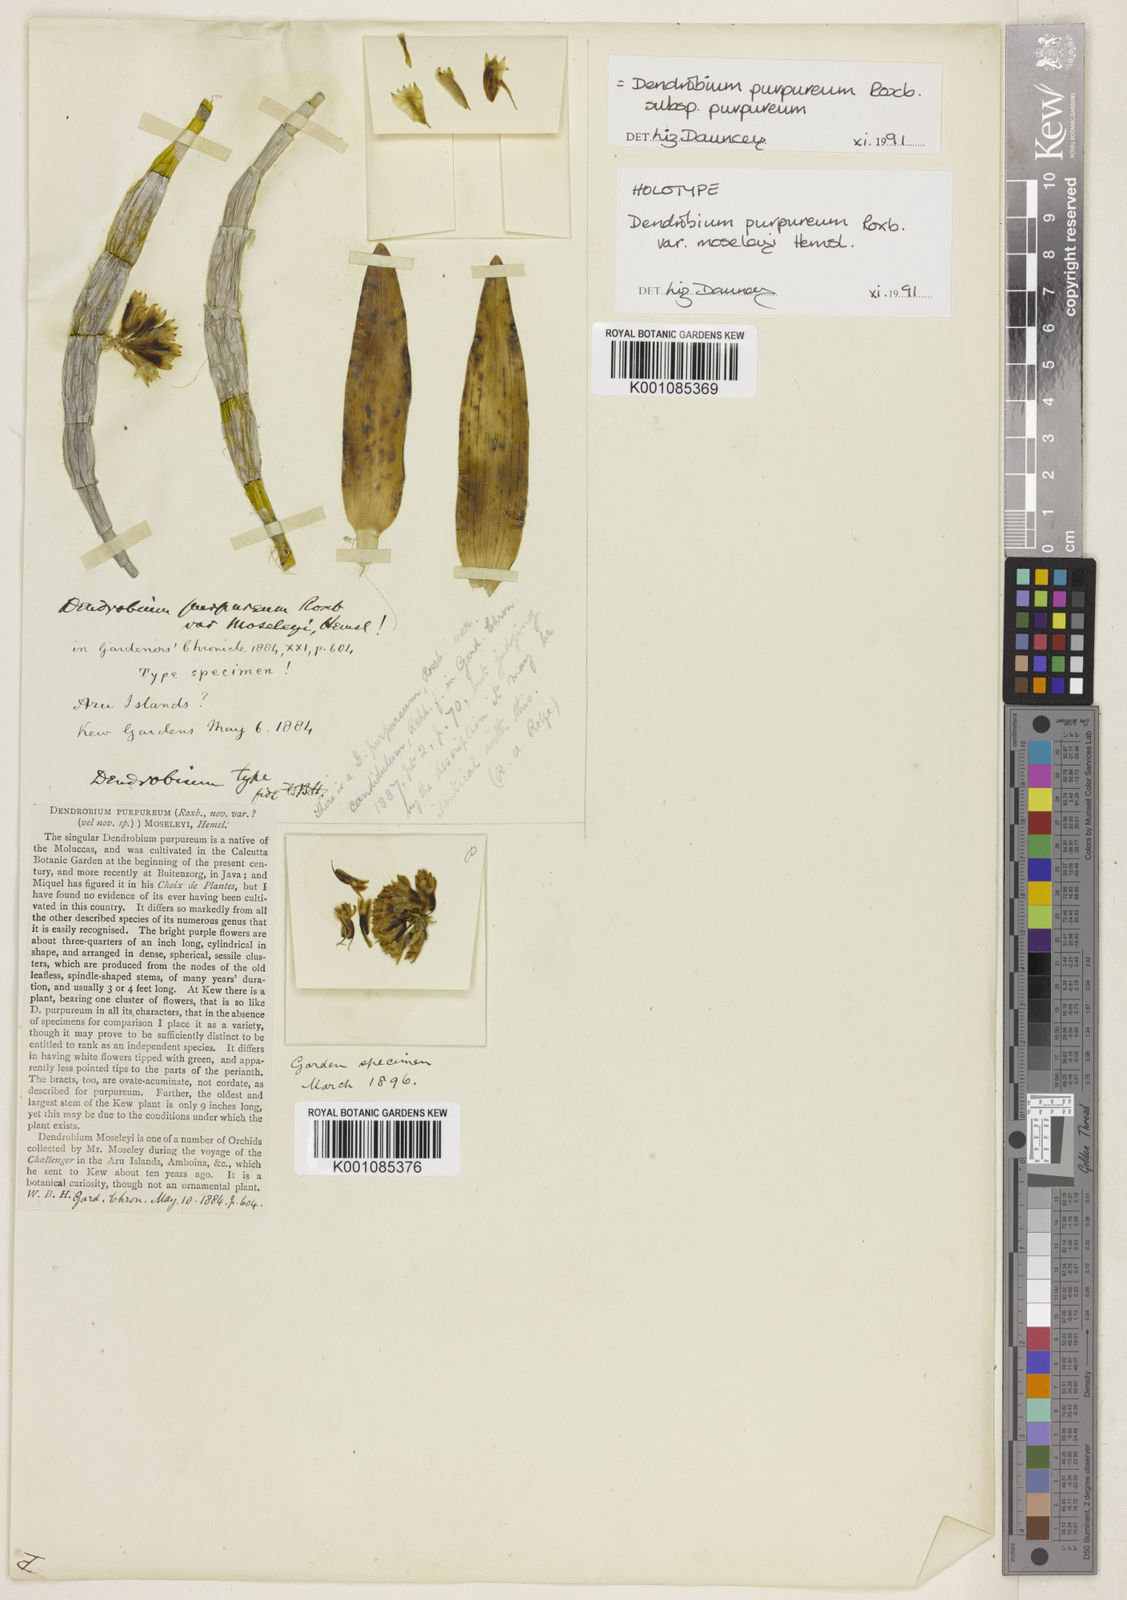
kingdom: Plantae
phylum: Tracheophyta
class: Liliopsida
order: Asparagales
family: Orchidaceae
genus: Dendrobium
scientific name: Dendrobium purpureum
